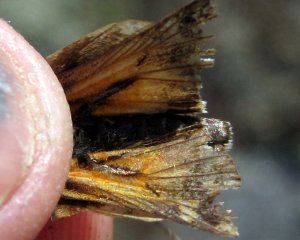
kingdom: Animalia
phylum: Arthropoda
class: Insecta
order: Lepidoptera
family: Hesperiidae
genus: Hesperia
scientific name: Hesperia sassacus
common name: Sassacus Skipper
